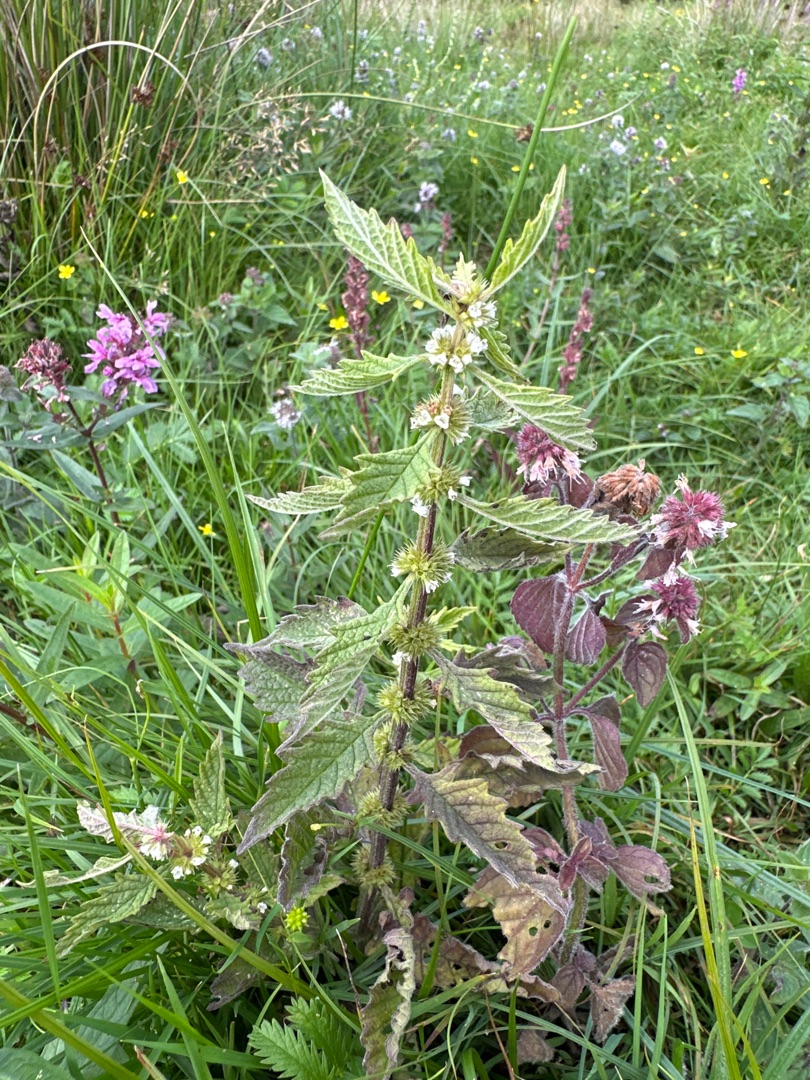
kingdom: Plantae
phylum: Tracheophyta
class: Magnoliopsida
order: Lamiales
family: Lamiaceae
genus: Lycopus
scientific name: Lycopus europaeus
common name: Sværtevæld
